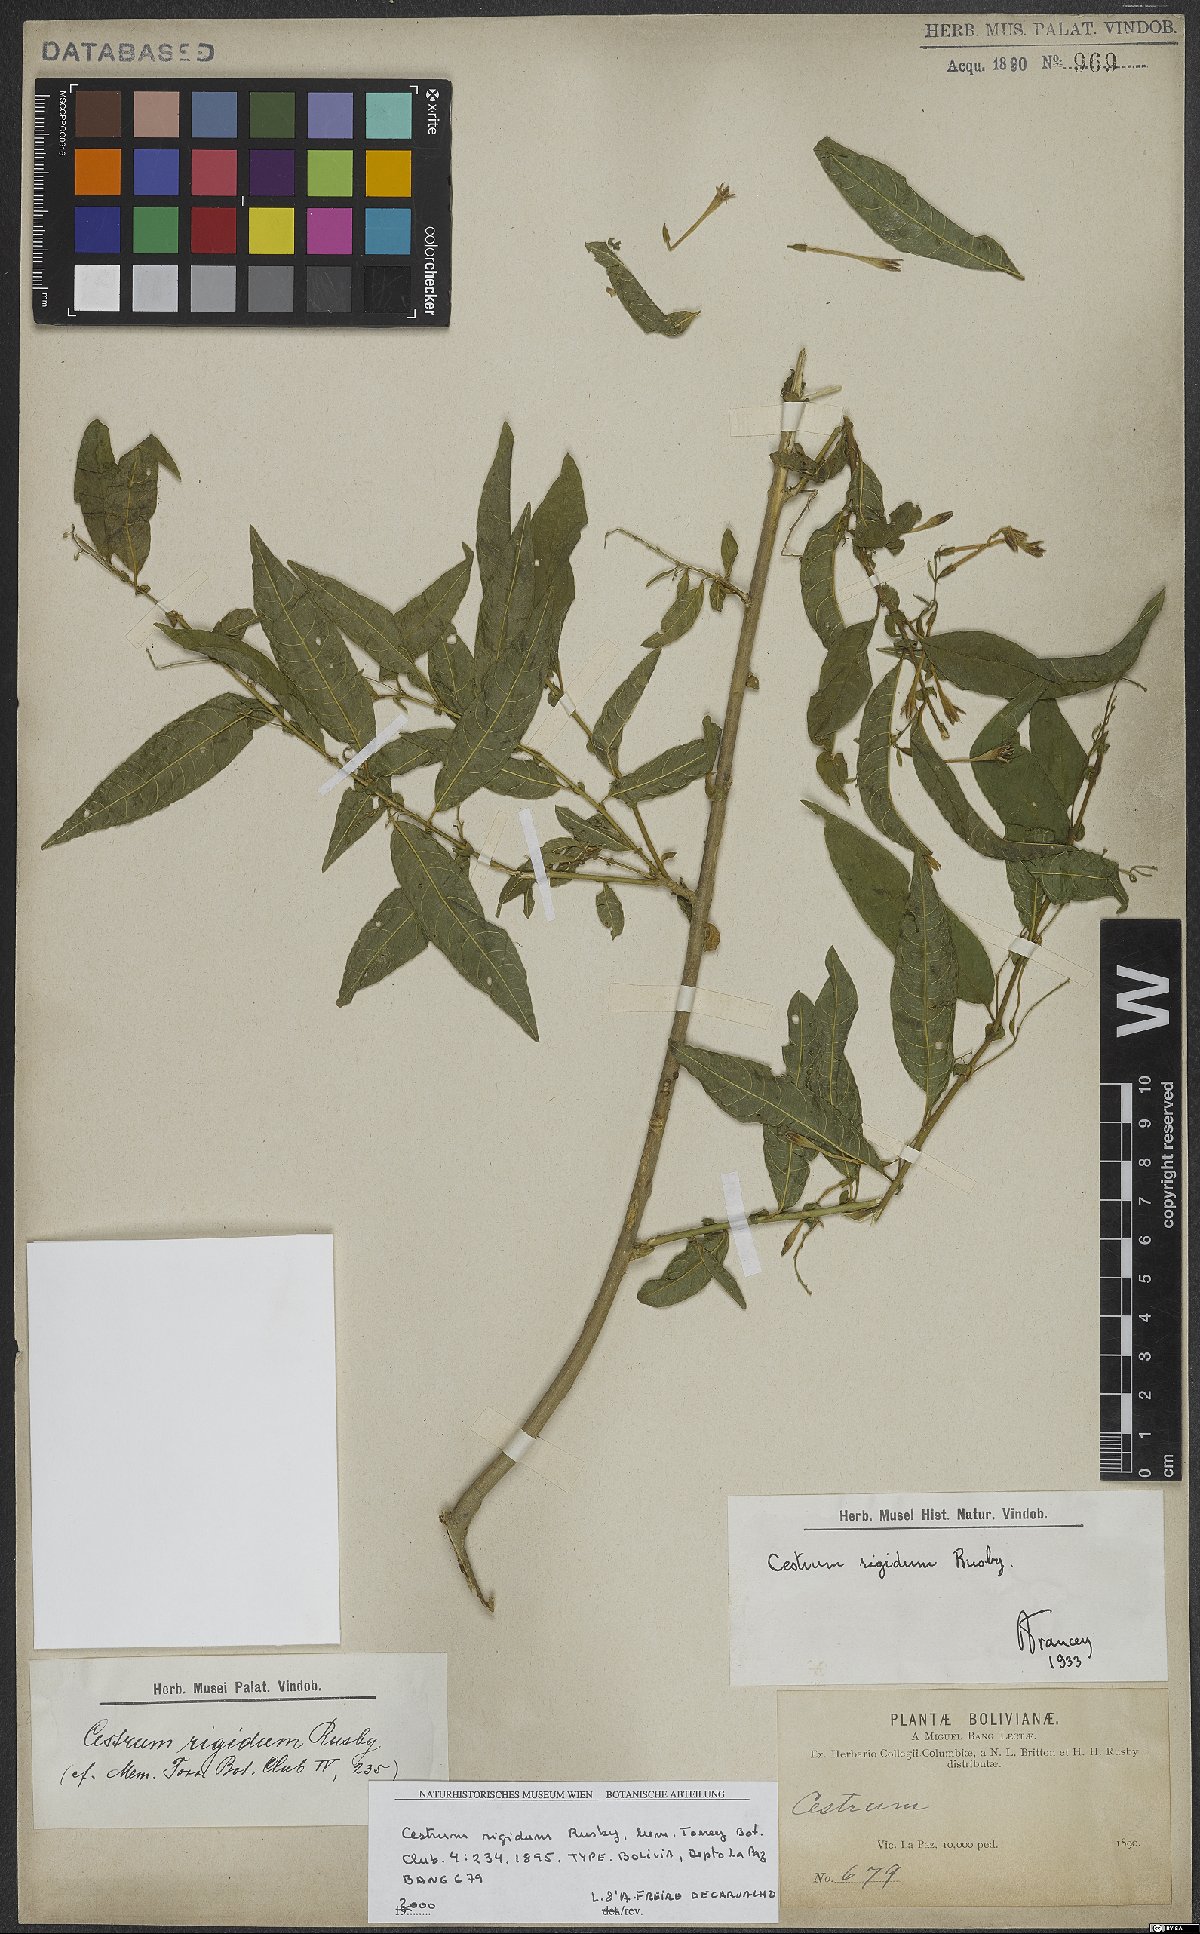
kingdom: Plantae
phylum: Tracheophyta
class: Magnoliopsida
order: Solanales
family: Solanaceae
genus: Cestrum
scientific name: Cestrum rigidum
